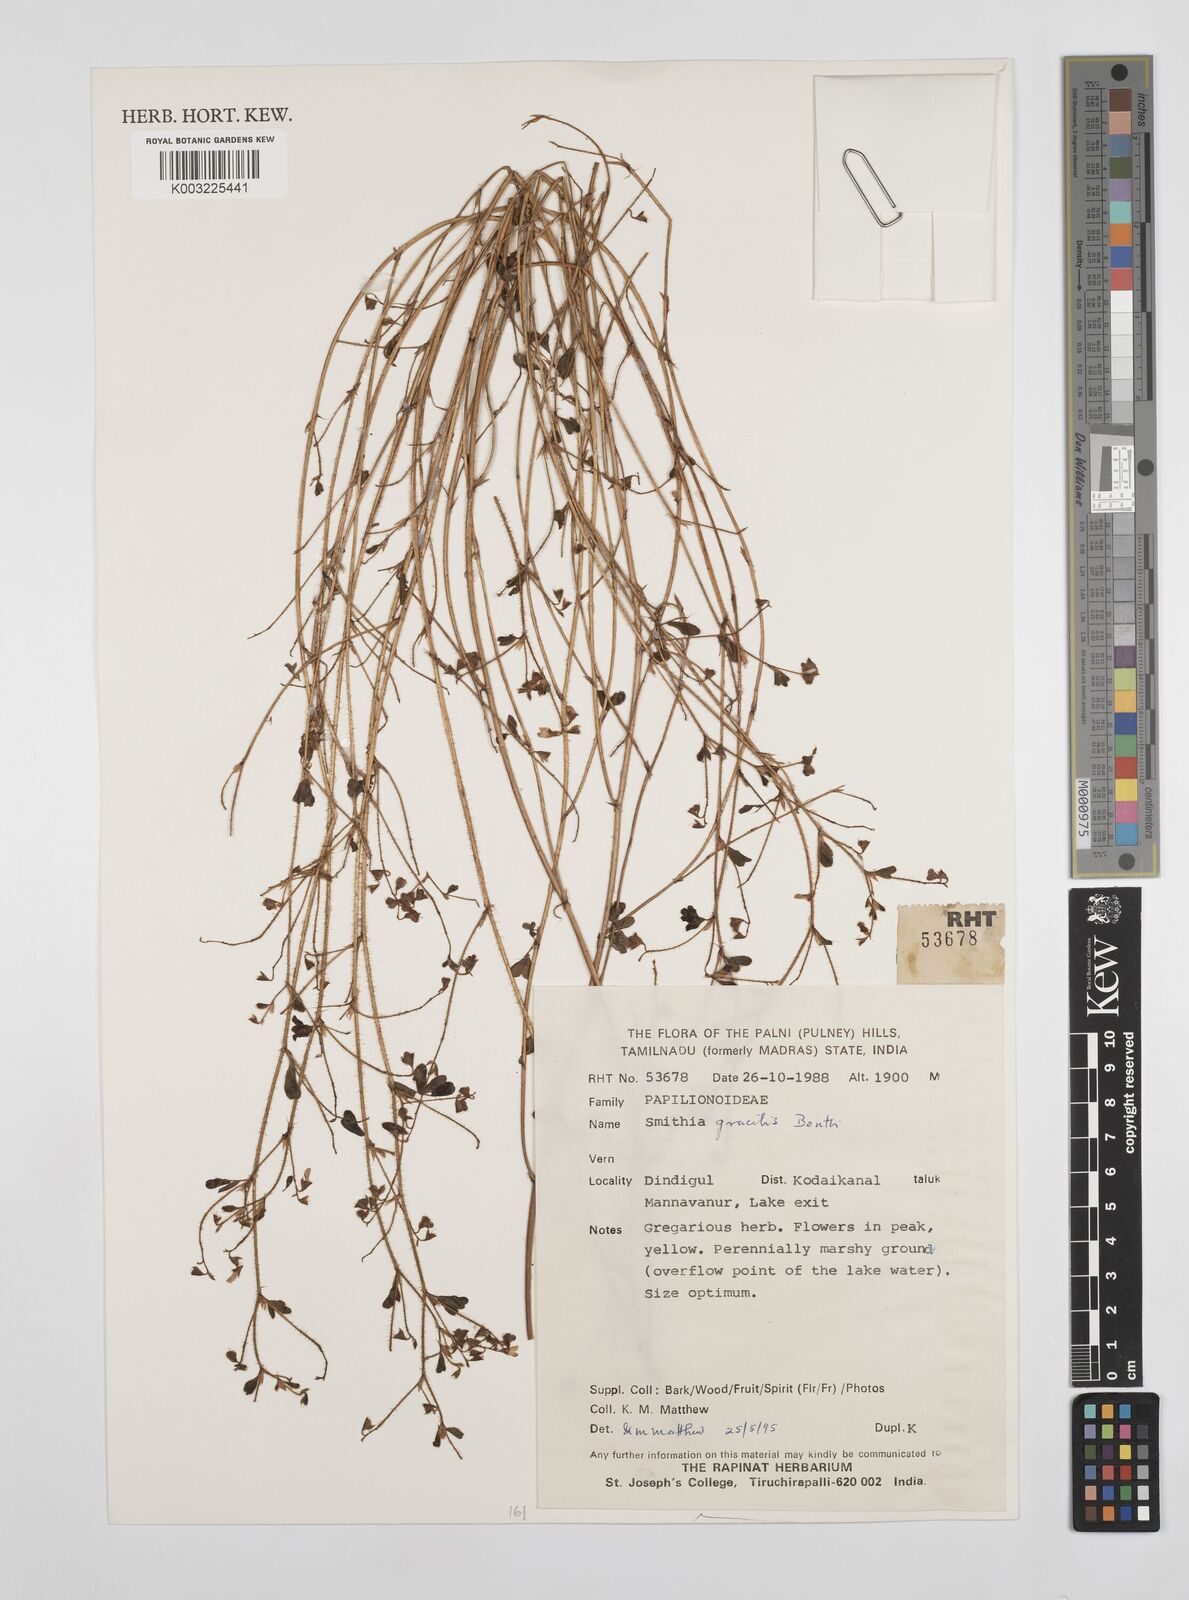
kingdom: Plantae
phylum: Tracheophyta
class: Magnoliopsida
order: Fabales
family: Fabaceae
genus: Smithia
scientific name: Smithia gracilis
